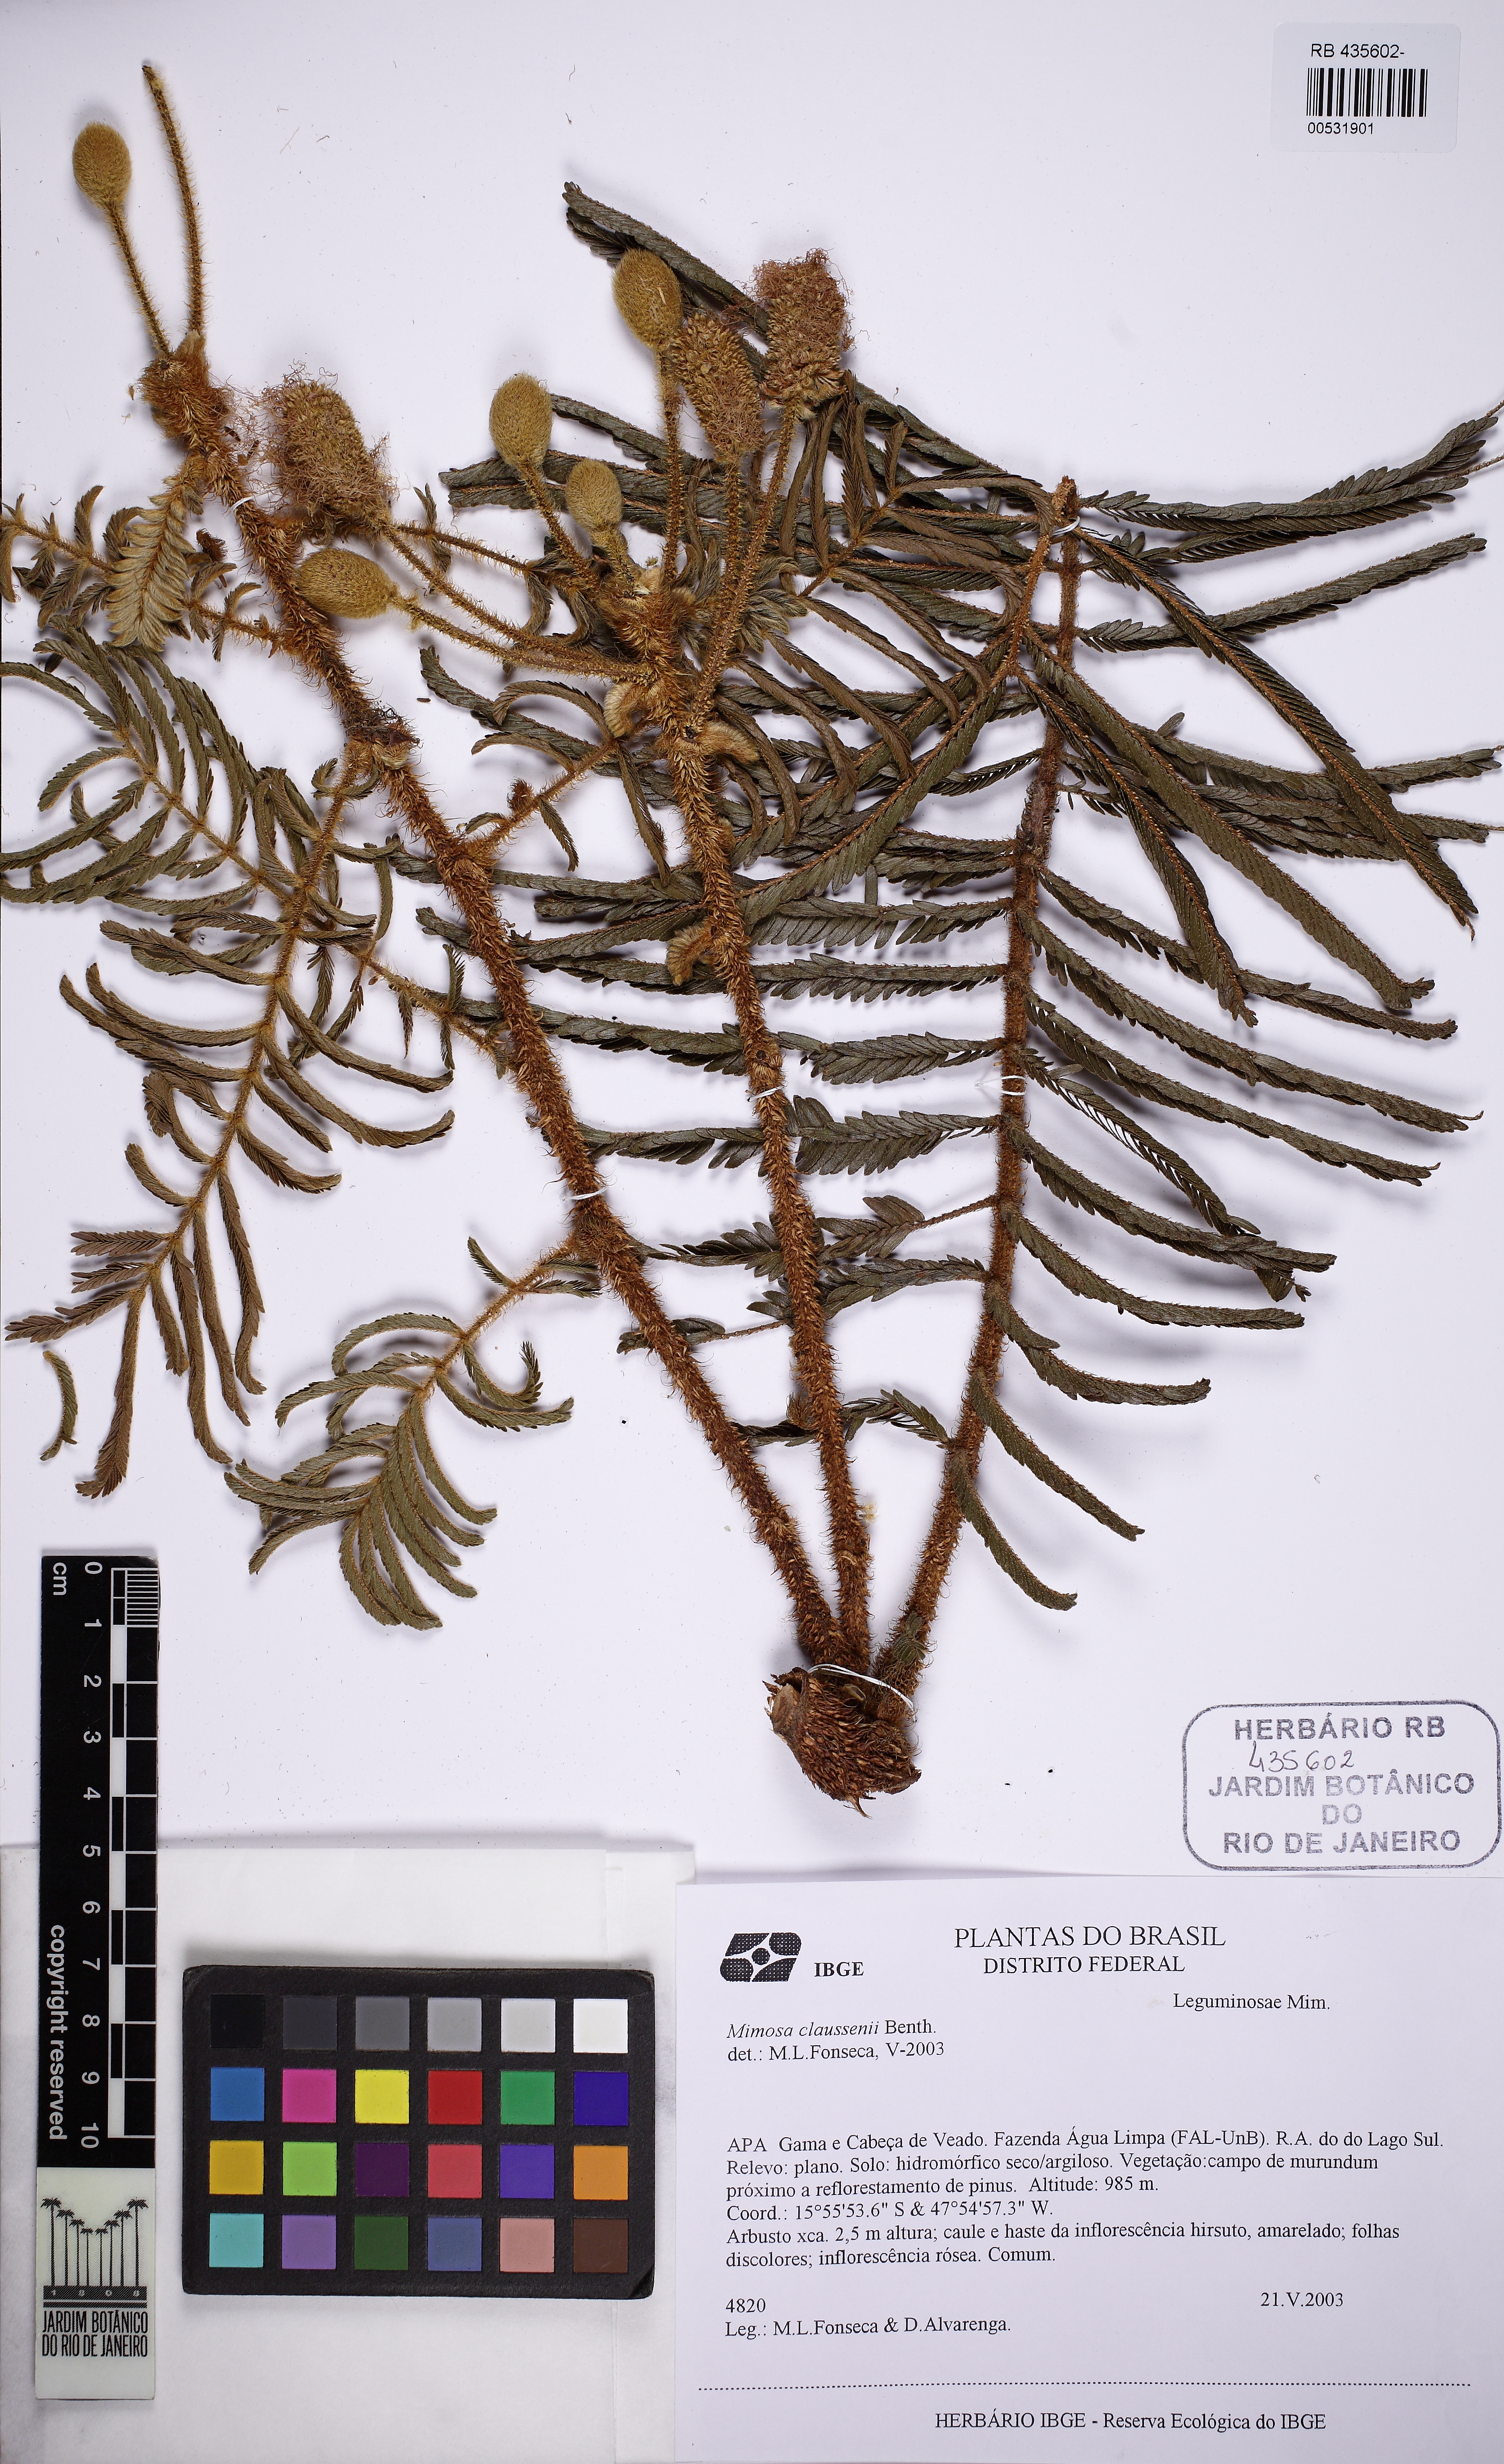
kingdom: Plantae
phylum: Tracheophyta
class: Magnoliopsida
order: Fabales
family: Fabaceae
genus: Mimosa
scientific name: Mimosa claussenii
